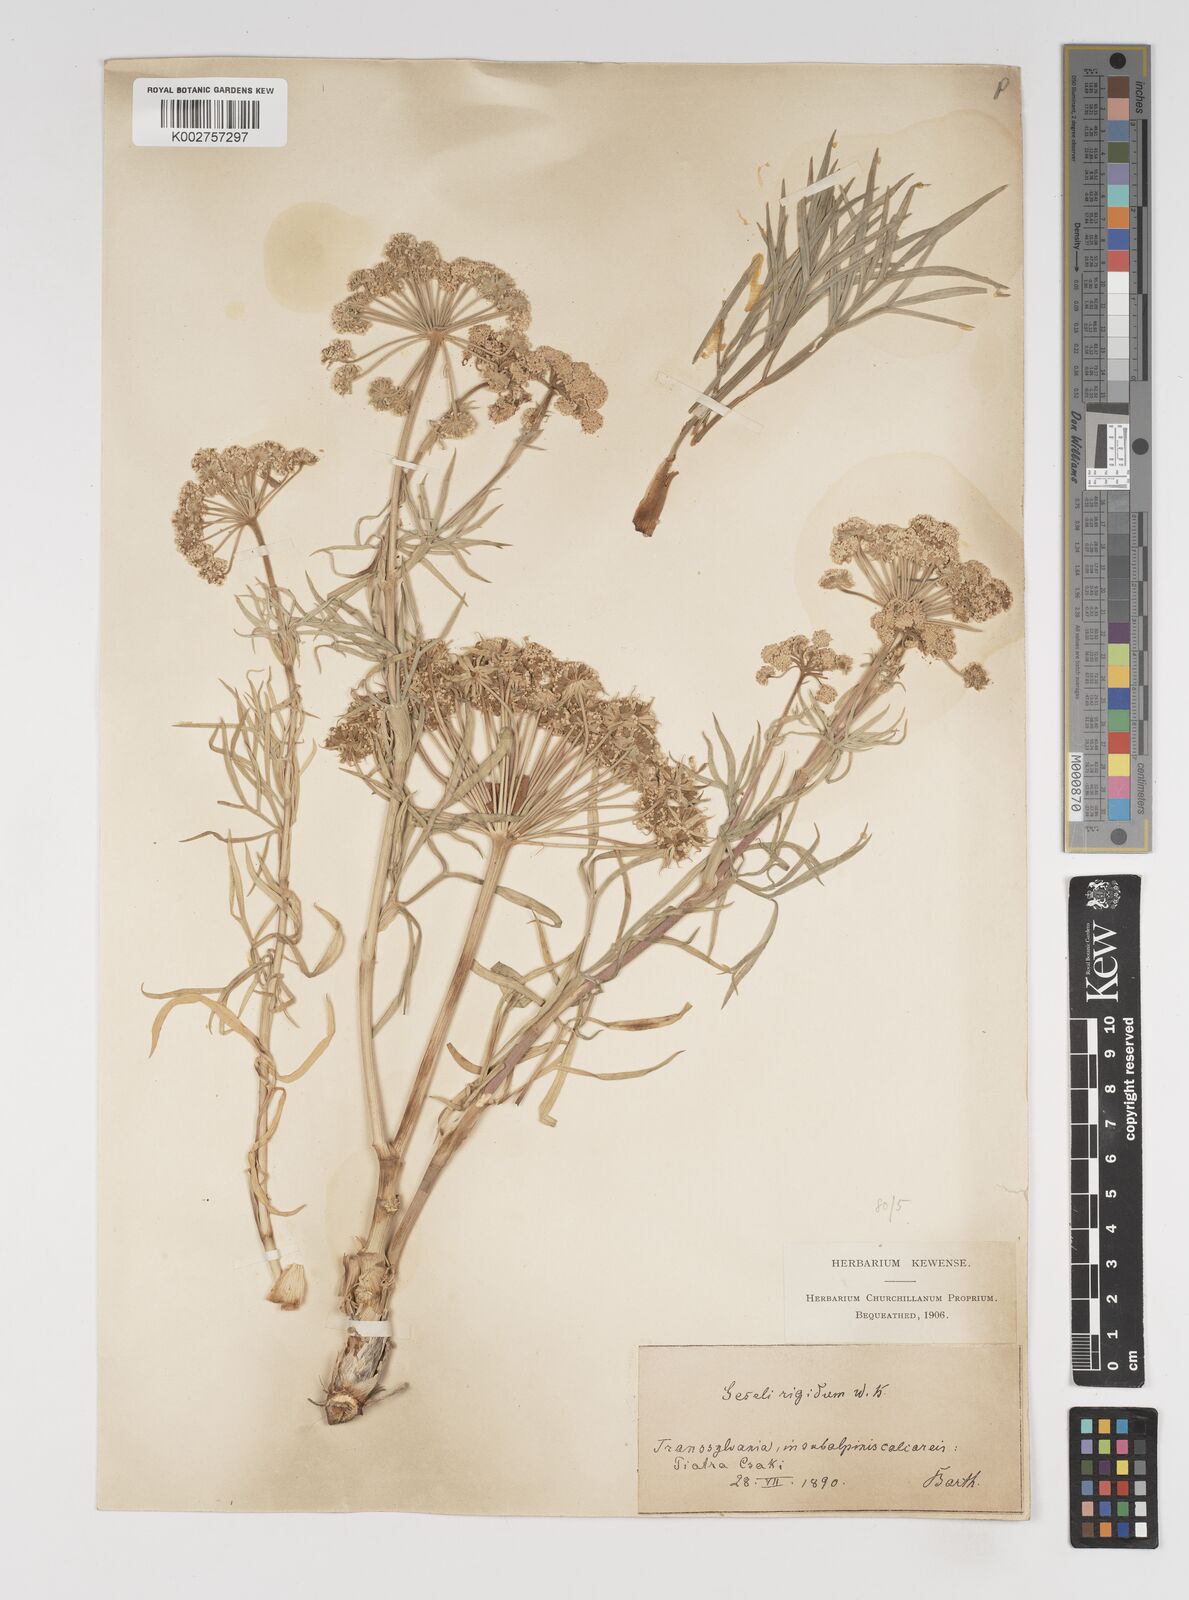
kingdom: Plantae
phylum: Tracheophyta
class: Magnoliopsida
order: Apiales
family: Apiaceae
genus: Seseli
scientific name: Seseli rigidum
